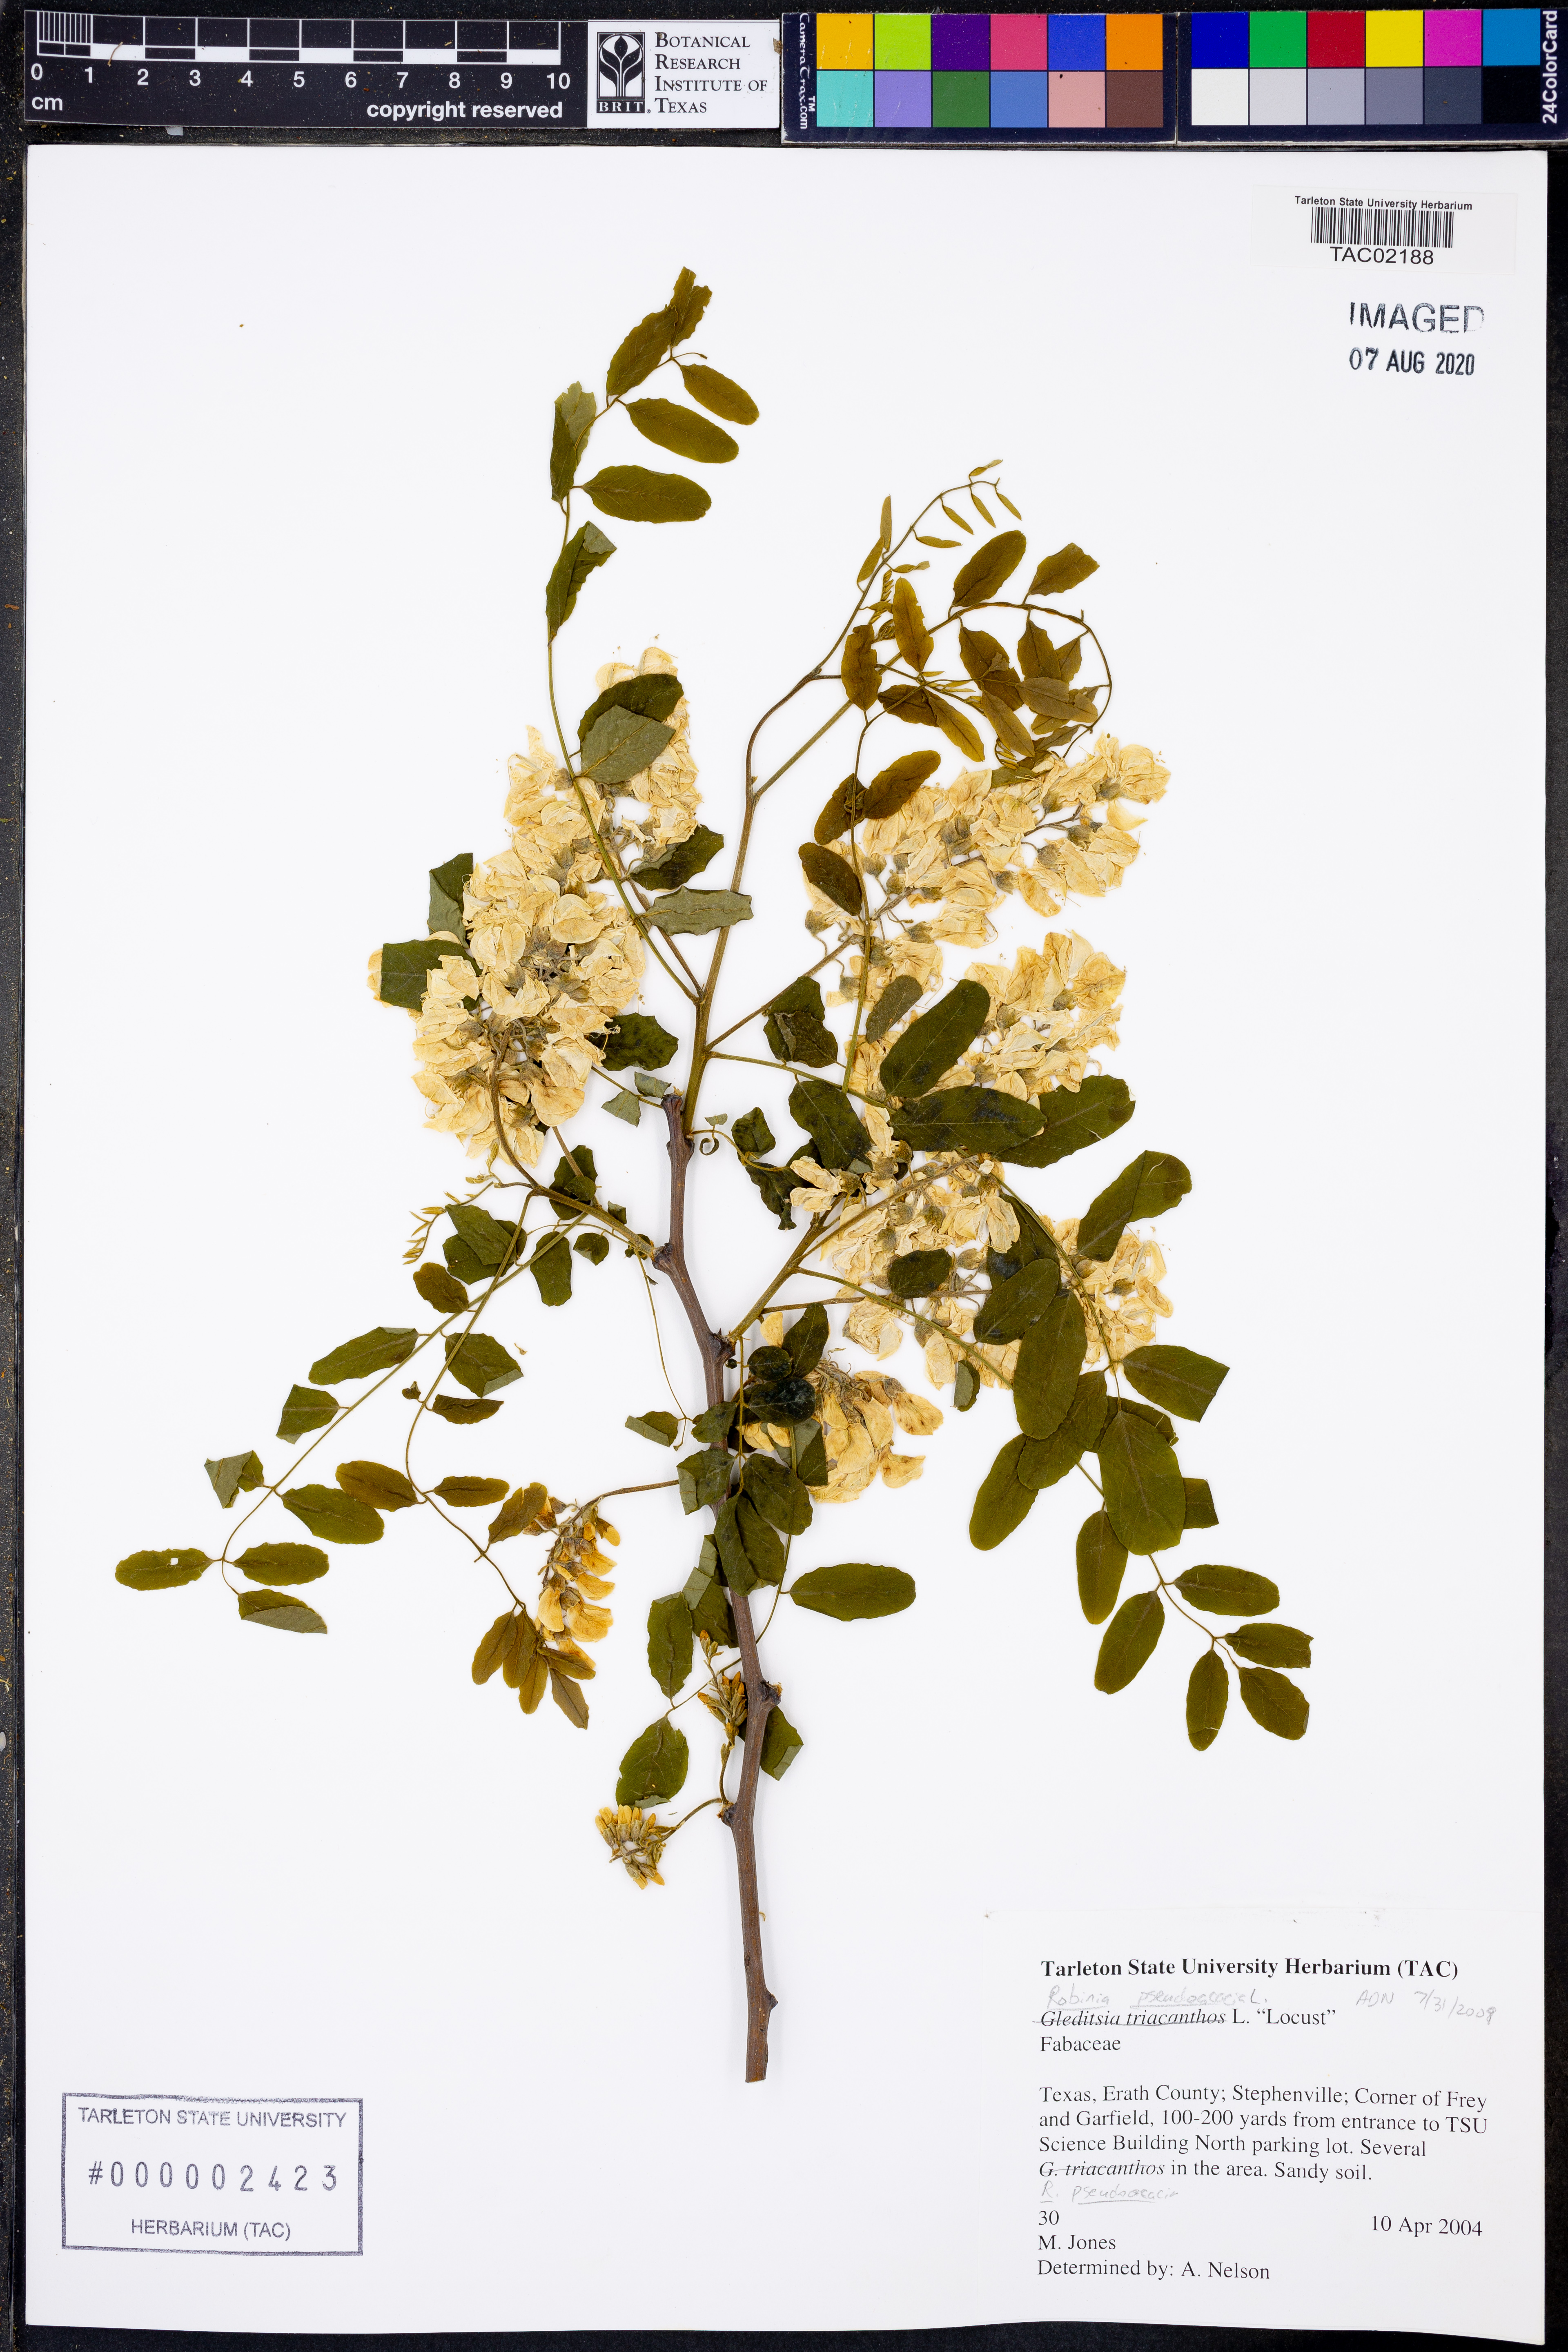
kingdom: Plantae
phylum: Tracheophyta
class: Magnoliopsida
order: Fabales
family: Fabaceae
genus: Robinia
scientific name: Robinia pseudoacacia
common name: Black locust
